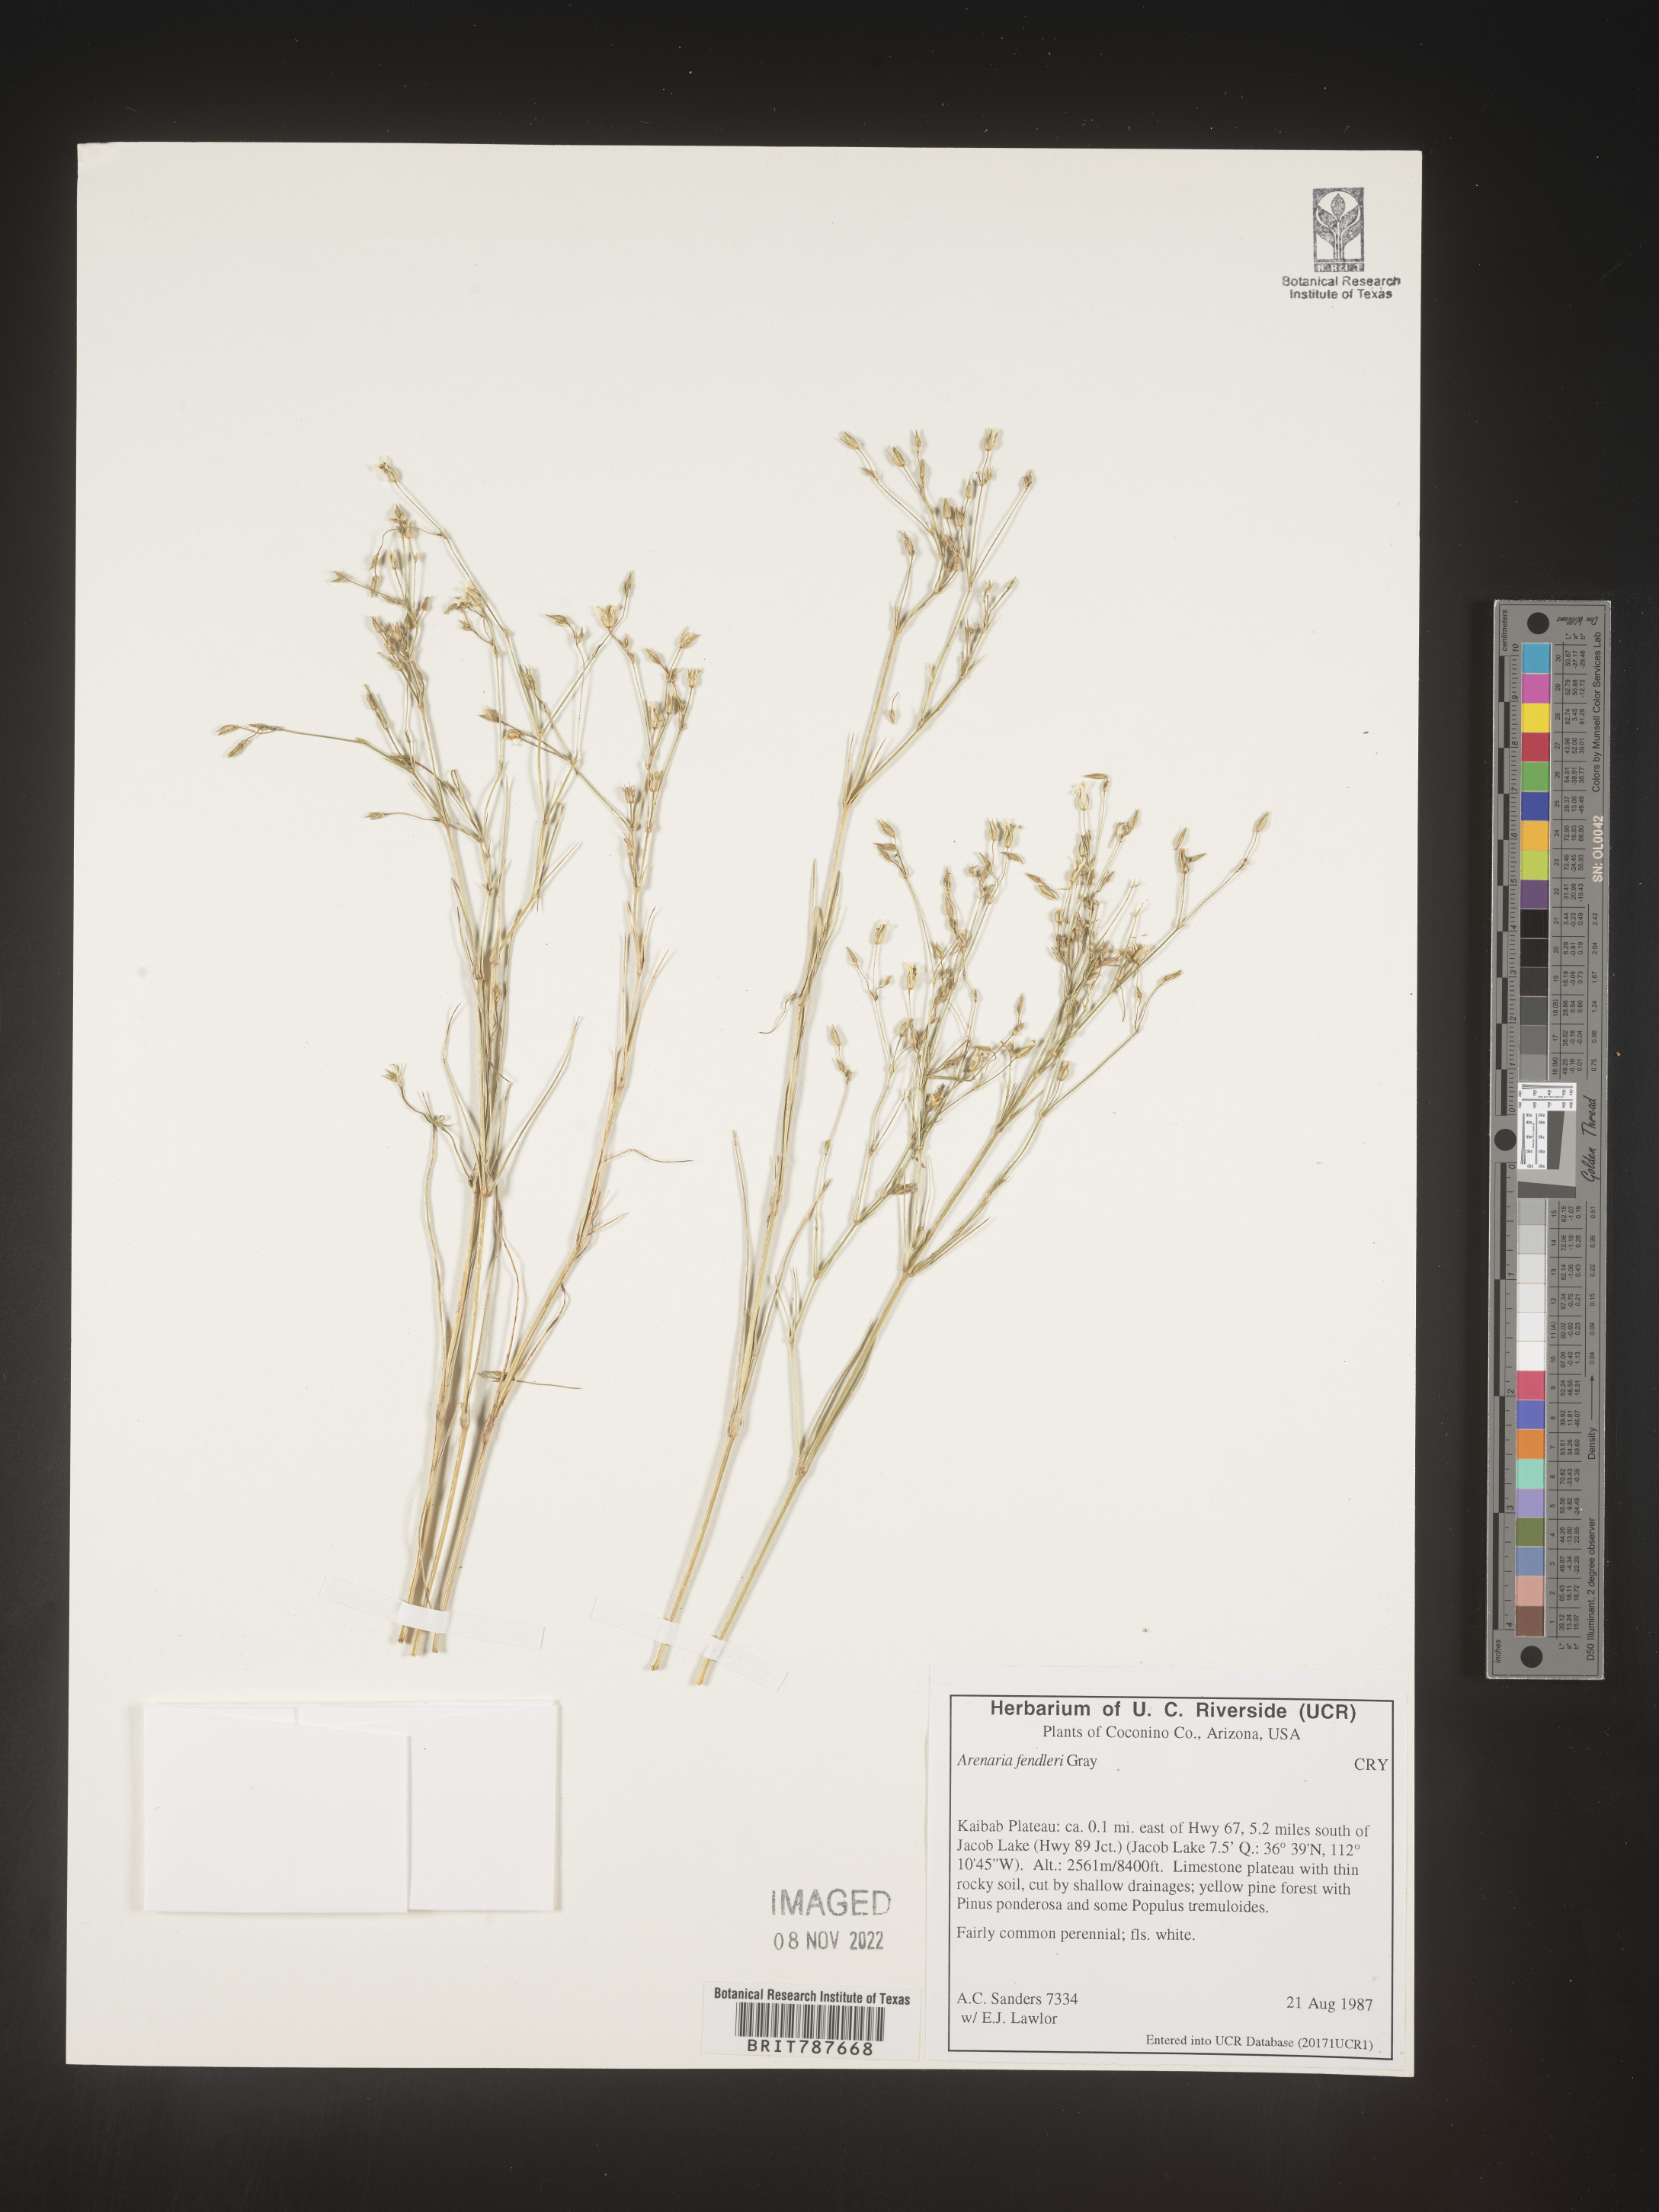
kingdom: Plantae
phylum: Tracheophyta
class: Magnoliopsida
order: Caryophyllales
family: Caryophyllaceae
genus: Arenaria
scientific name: Arenaria
